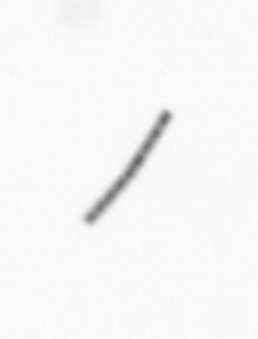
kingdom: Chromista
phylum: Ochrophyta
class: Bacillariophyceae
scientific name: Bacillariophyceae
